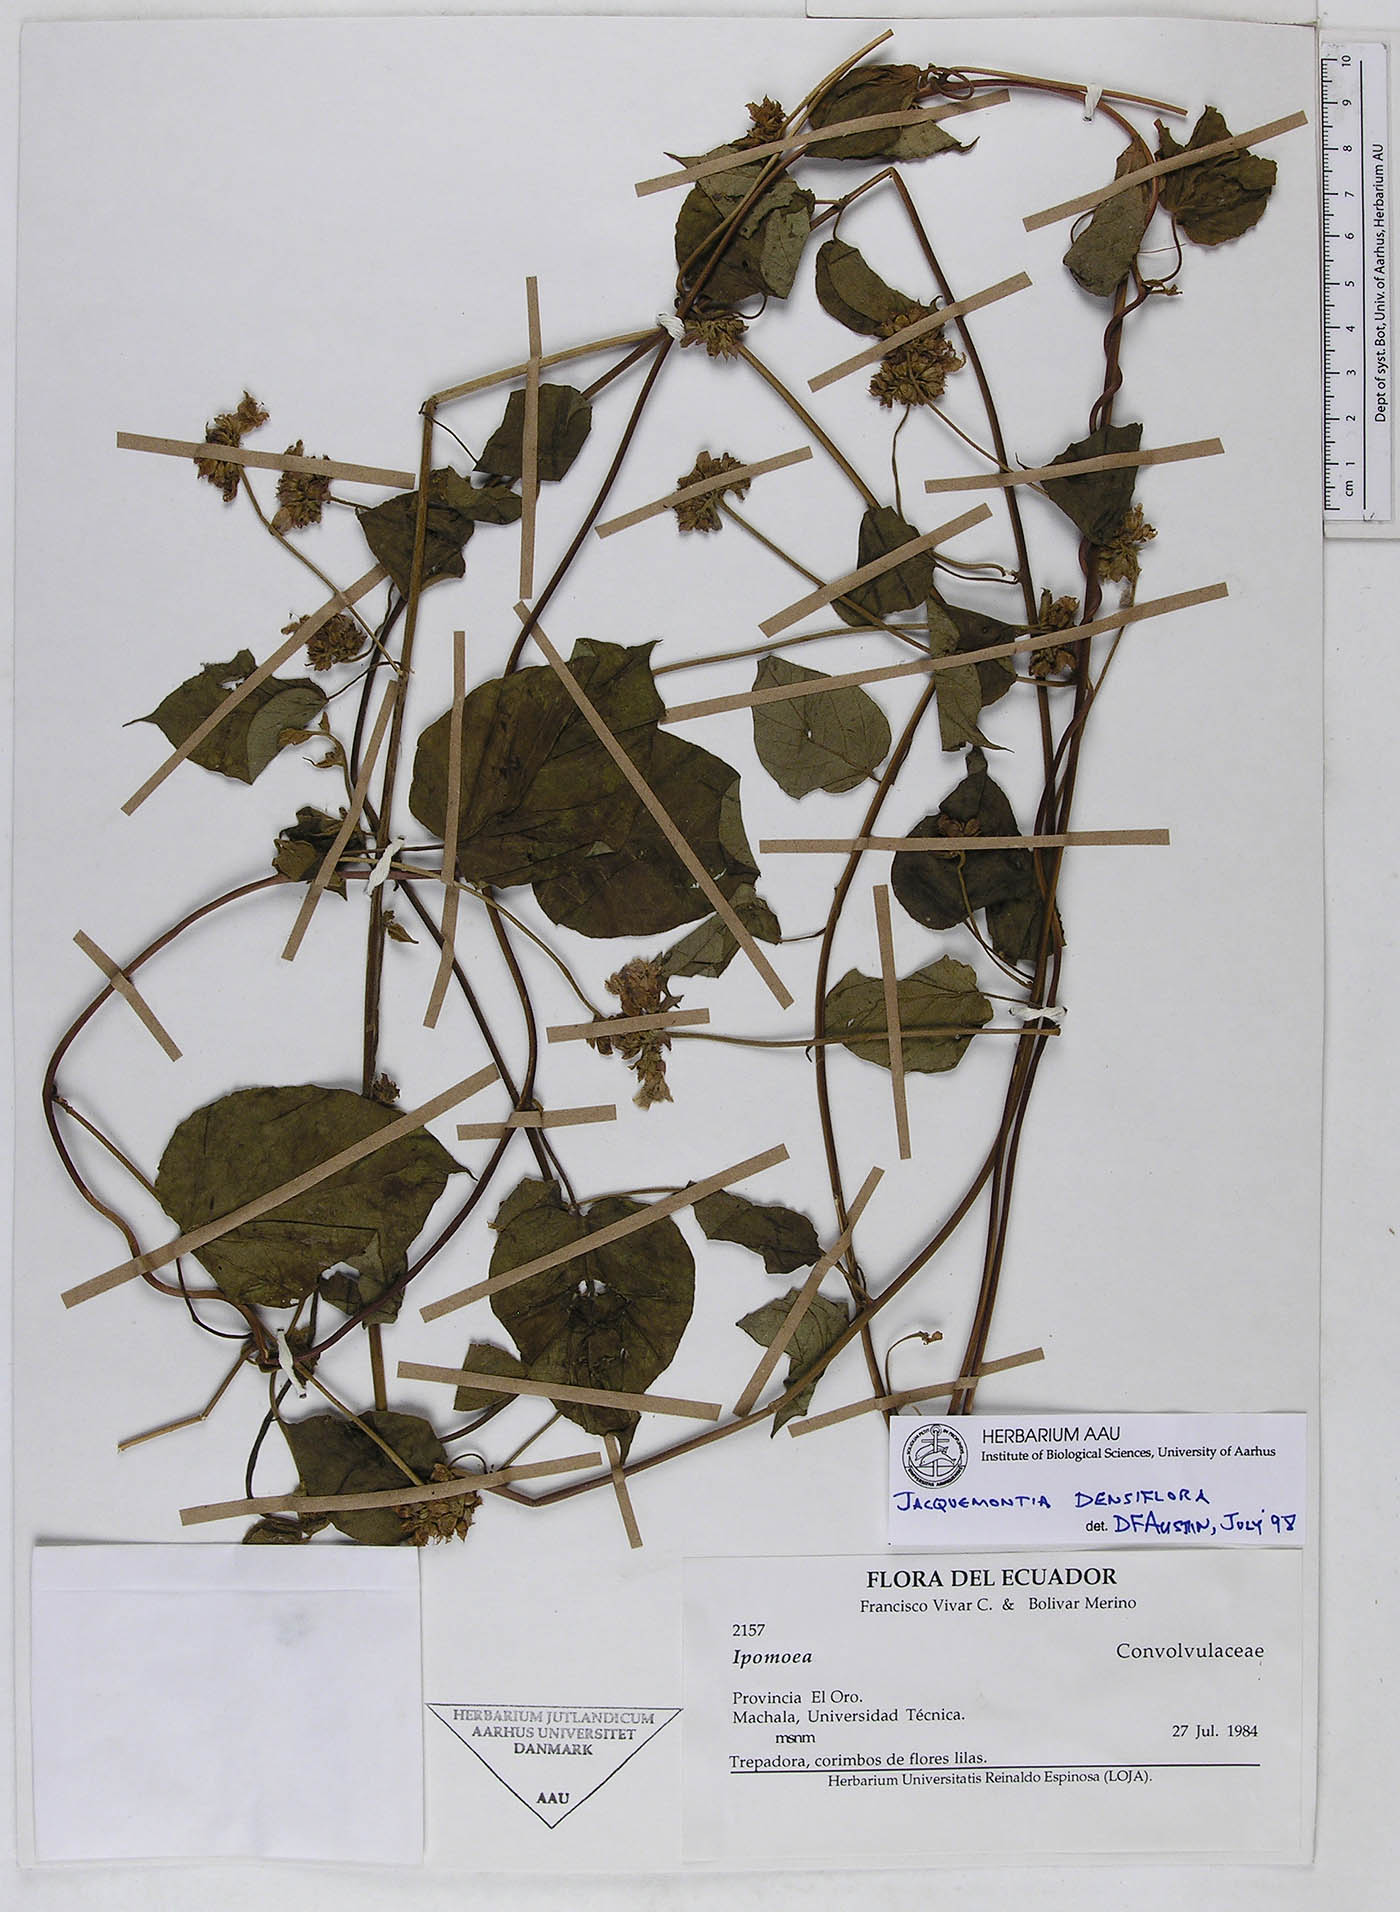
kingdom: Plantae
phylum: Tracheophyta
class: Magnoliopsida
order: Solanales
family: Convolvulaceae
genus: Jacquemontia
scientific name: Jacquemontia densiflora
